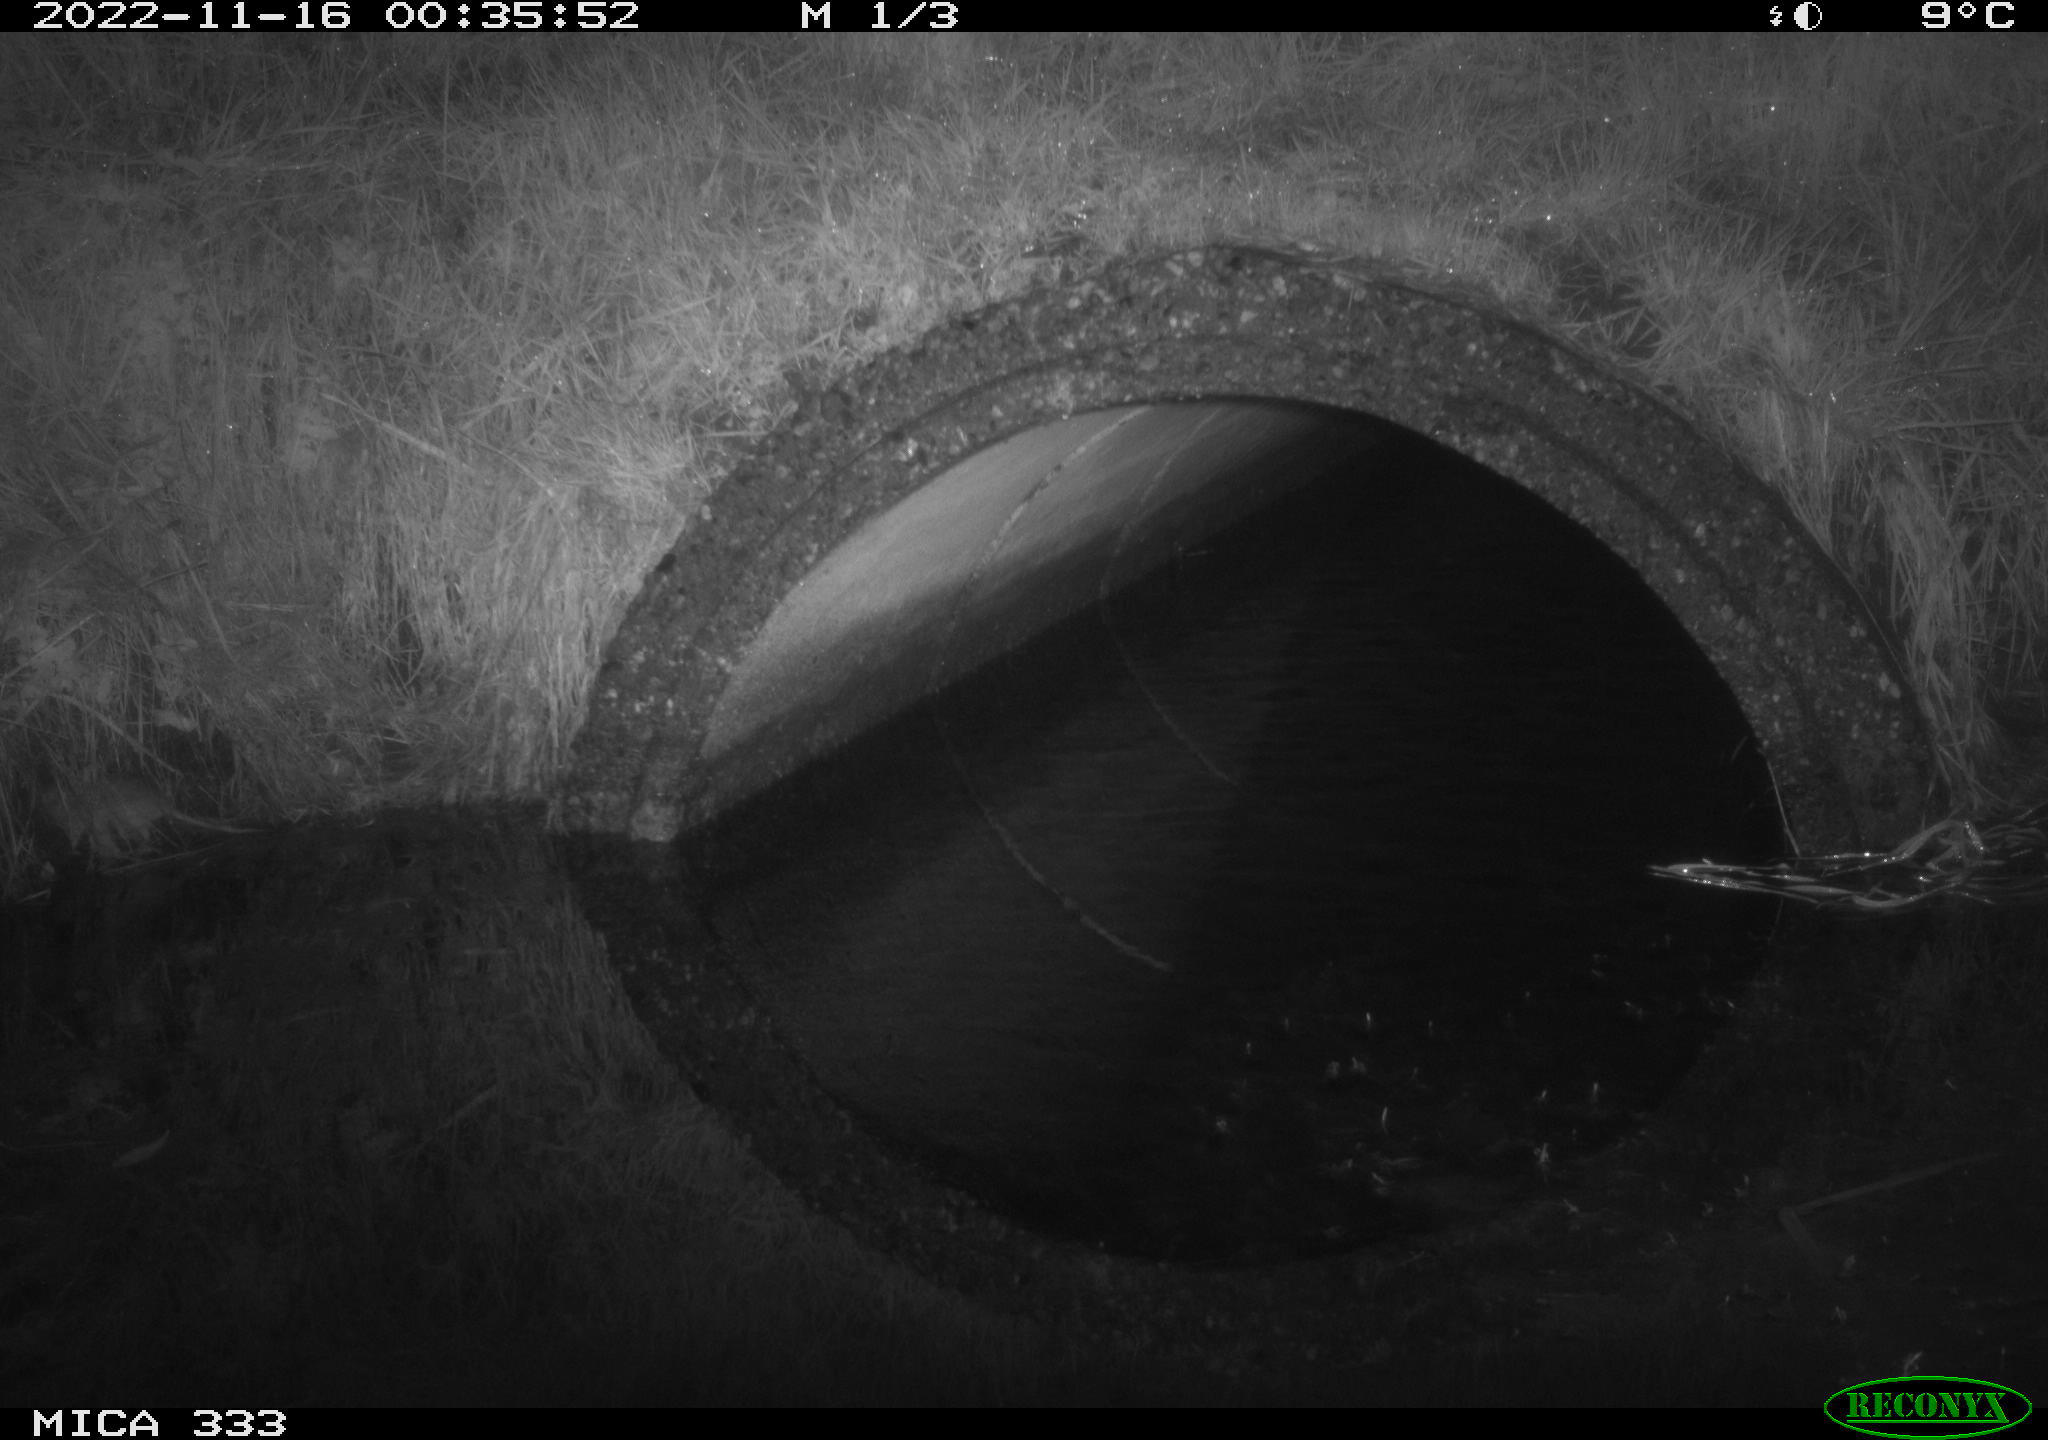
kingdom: Animalia
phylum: Chordata
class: Mammalia
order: Rodentia
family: Muridae
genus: Rattus
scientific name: Rattus norvegicus
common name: Brown rat
